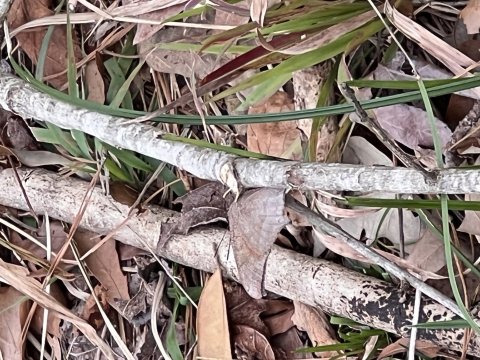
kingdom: Animalia
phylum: Arthropoda
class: Insecta
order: Lepidoptera
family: Nymphalidae
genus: Anaea
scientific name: Anaea andria
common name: Goatweed Leafwing
